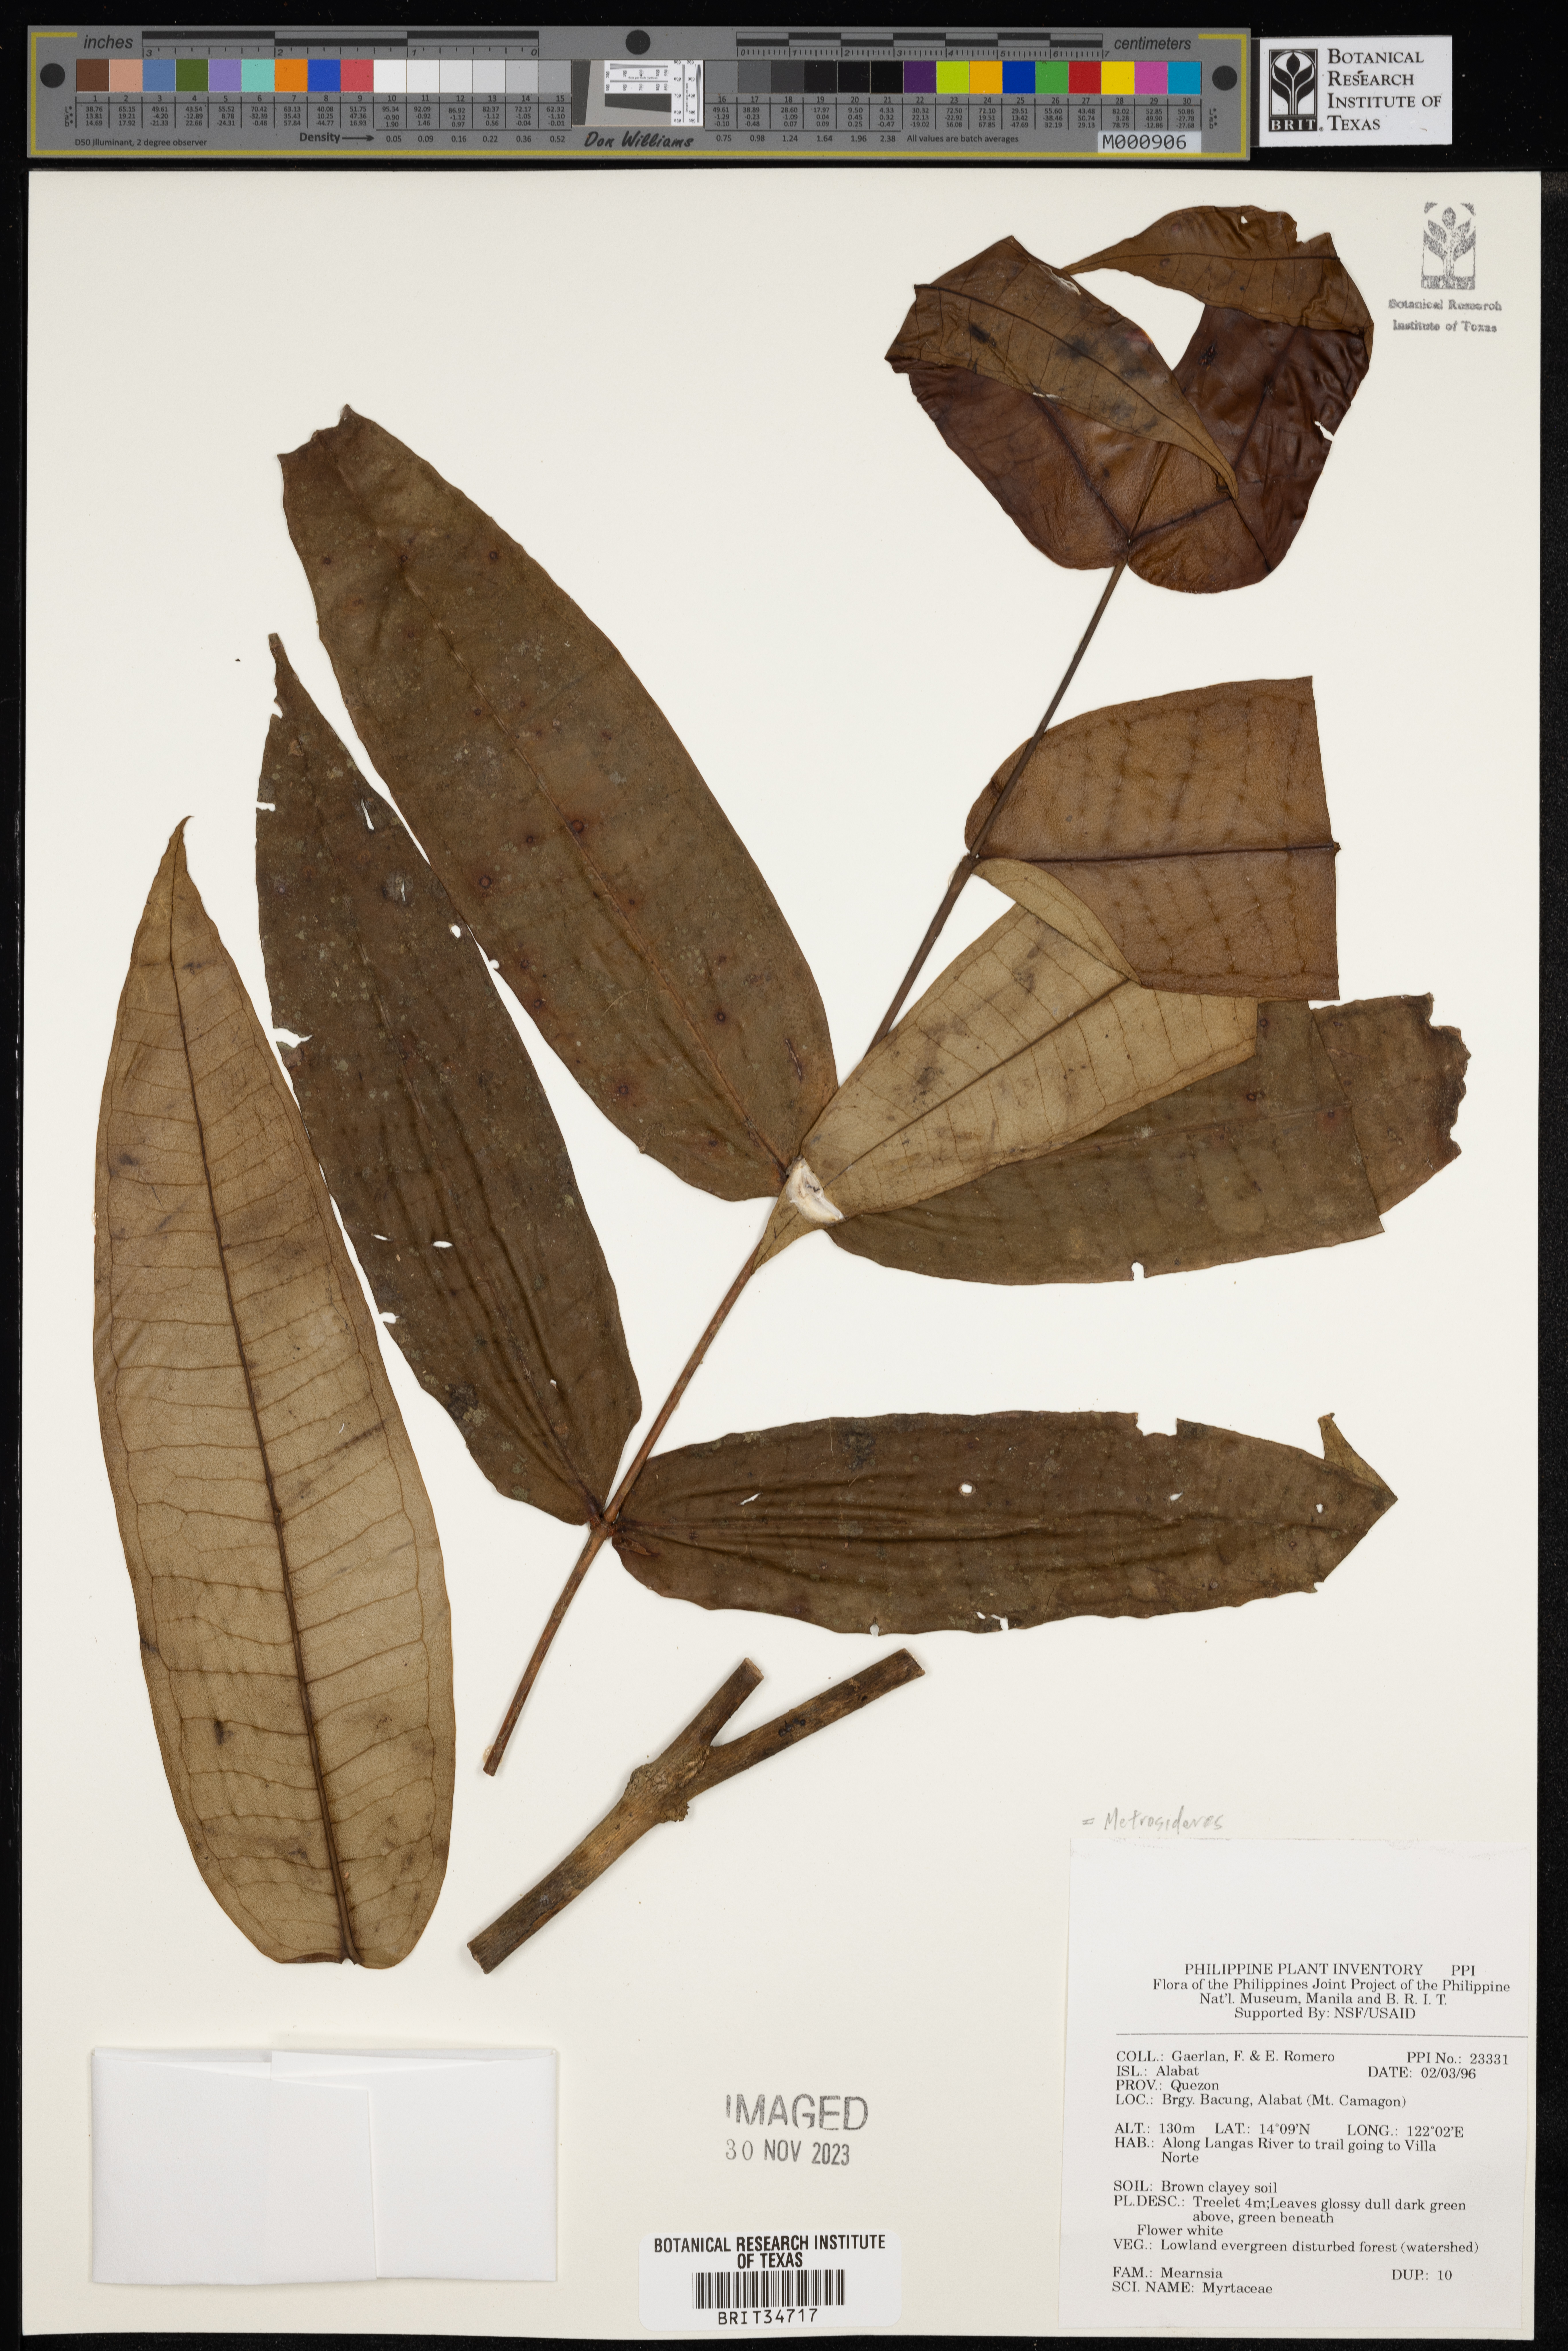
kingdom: Plantae
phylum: Tracheophyta
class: Magnoliopsida
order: Myrtales
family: Myrtaceae
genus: Metrosideros
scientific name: Metrosideros
